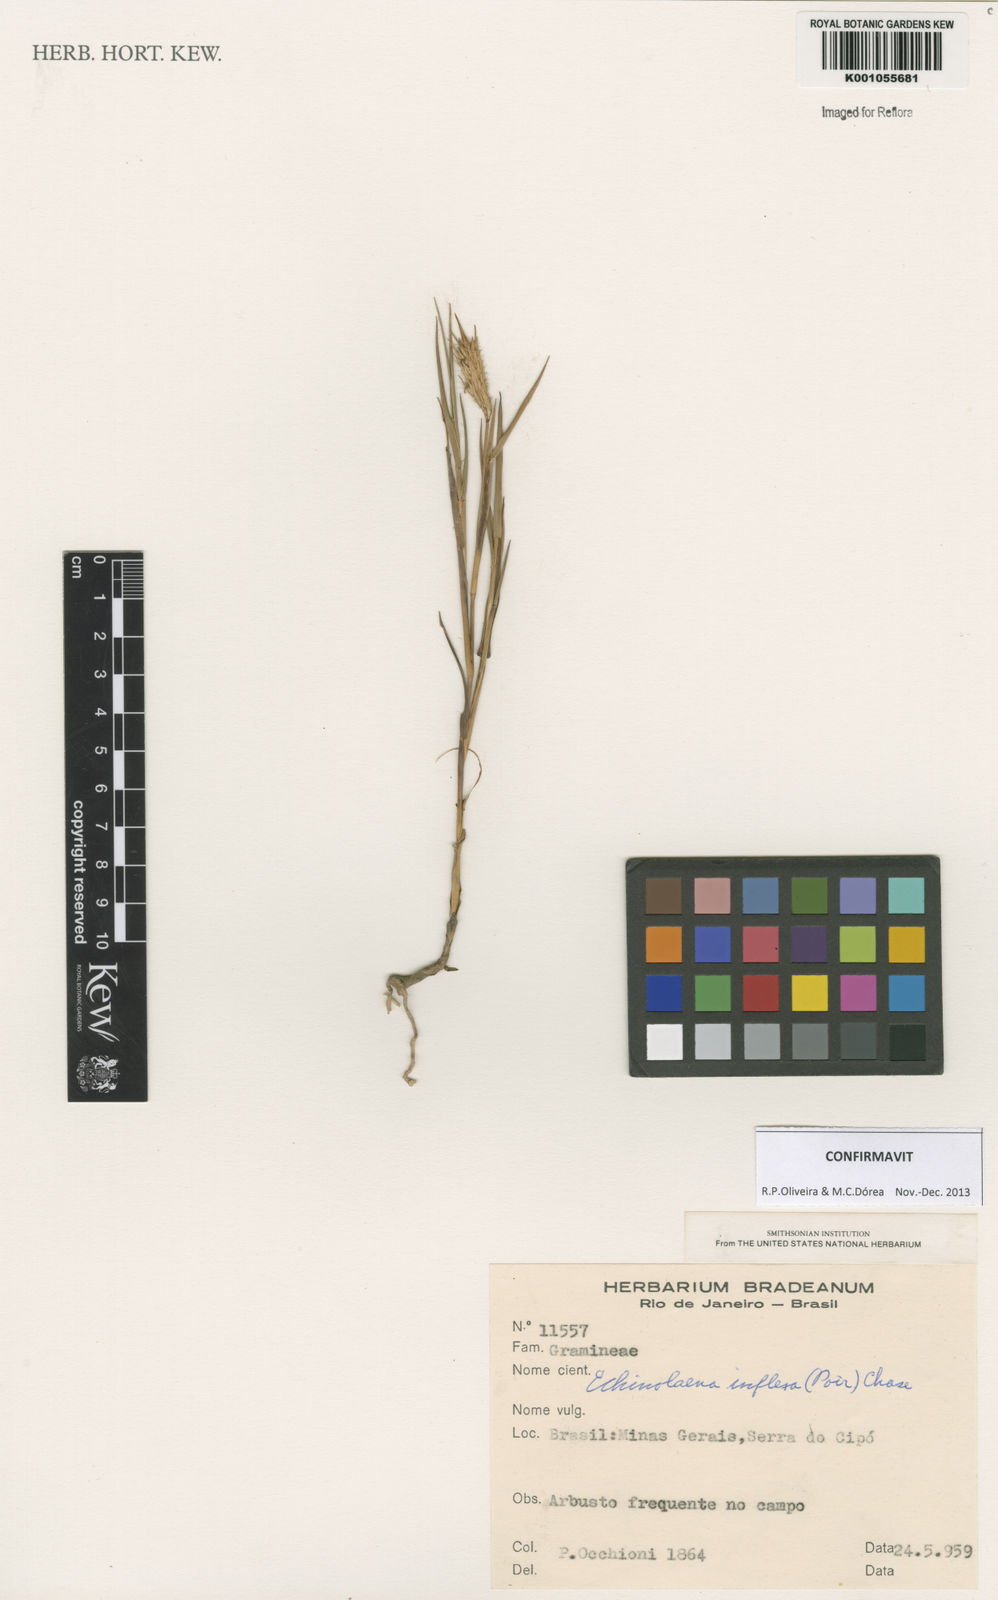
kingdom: Plantae
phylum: Tracheophyta
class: Liliopsida
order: Poales
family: Poaceae
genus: Echinolaena
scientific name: Echinolaena inflexa
